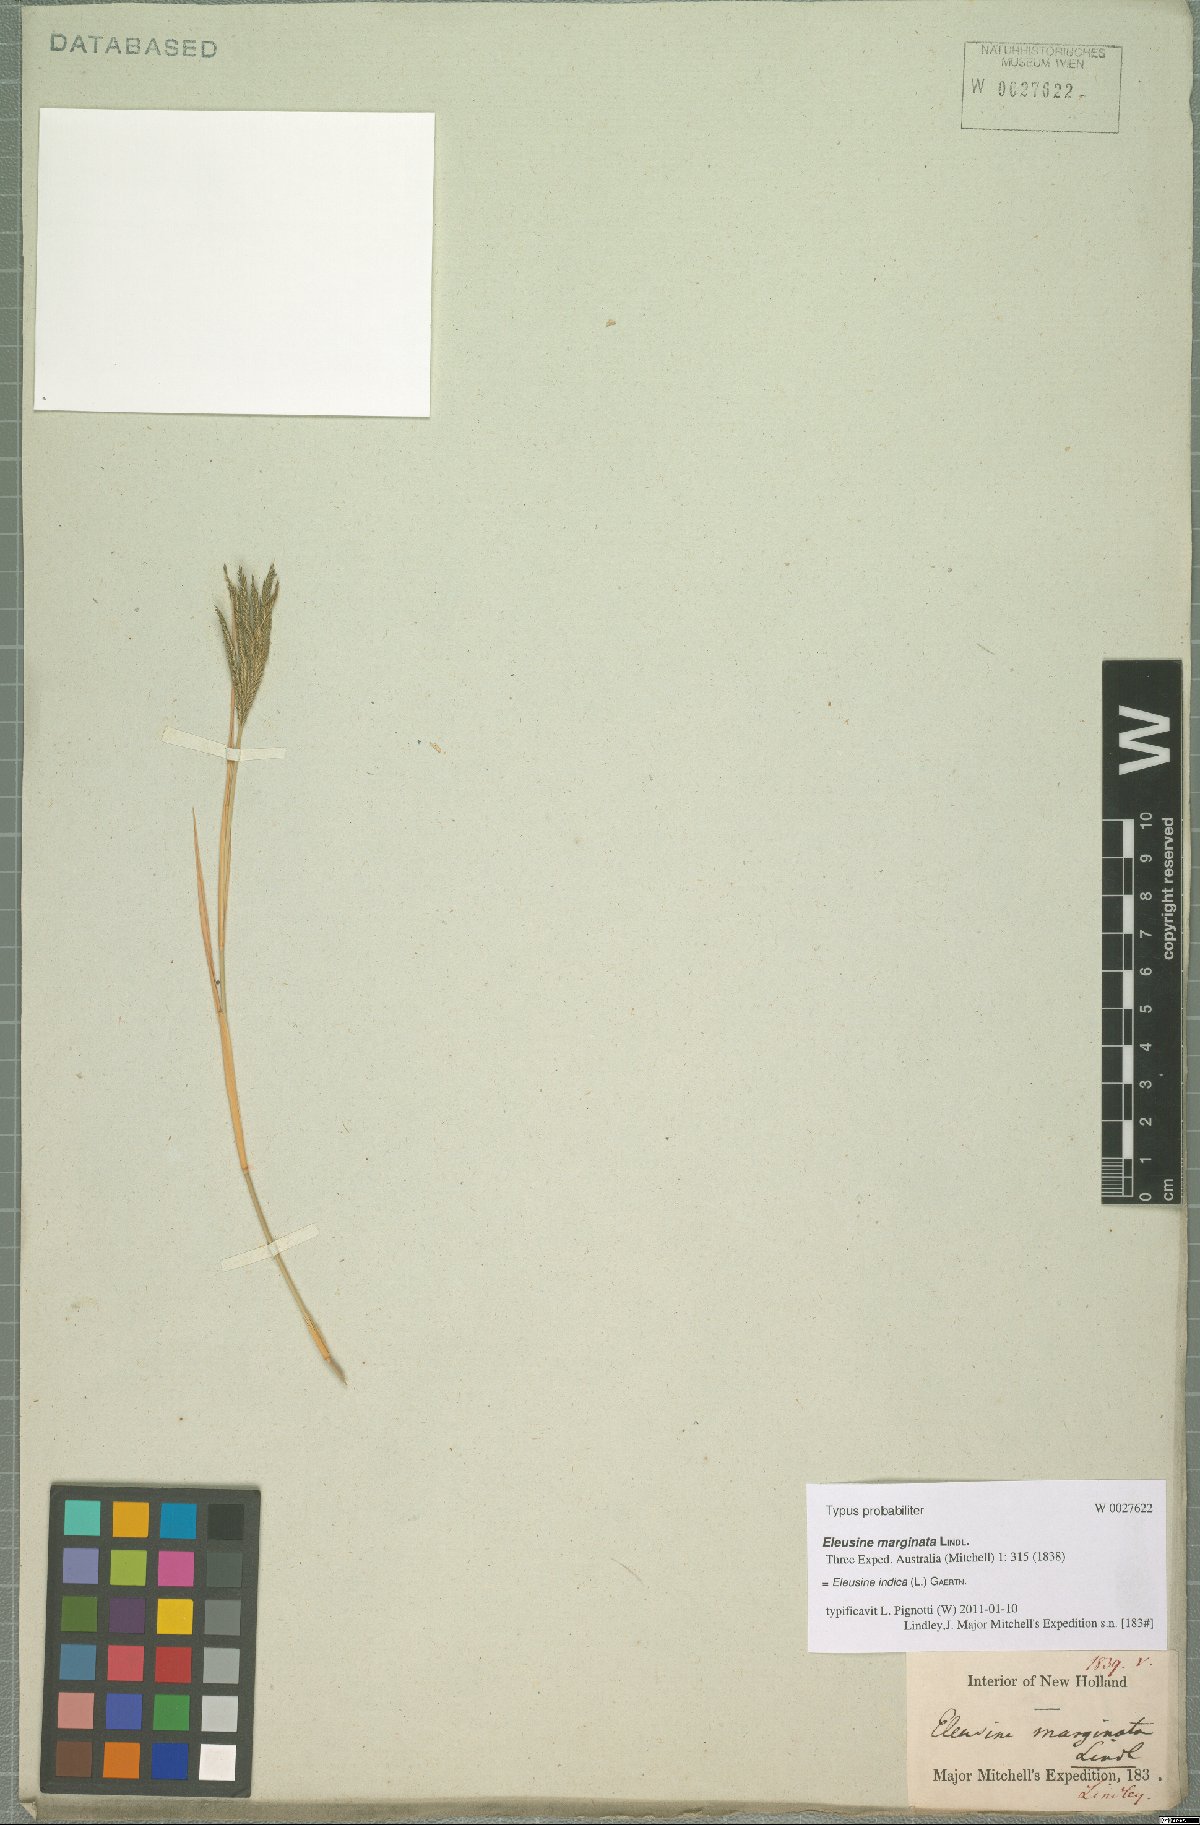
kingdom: Plantae
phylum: Tracheophyta
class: Liliopsida
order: Poales
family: Poaceae
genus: Eleusine
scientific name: Eleusine indica
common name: Yard-grass
